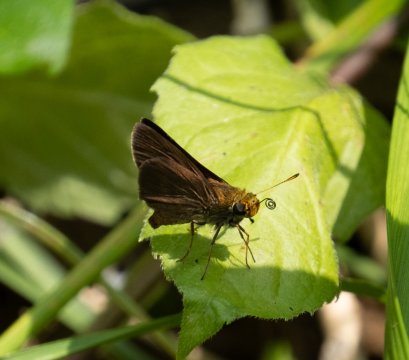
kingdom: Animalia
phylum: Arthropoda
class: Insecta
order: Lepidoptera
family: Hesperiidae
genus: Euphyes
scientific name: Euphyes vestris
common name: Dun Skipper
